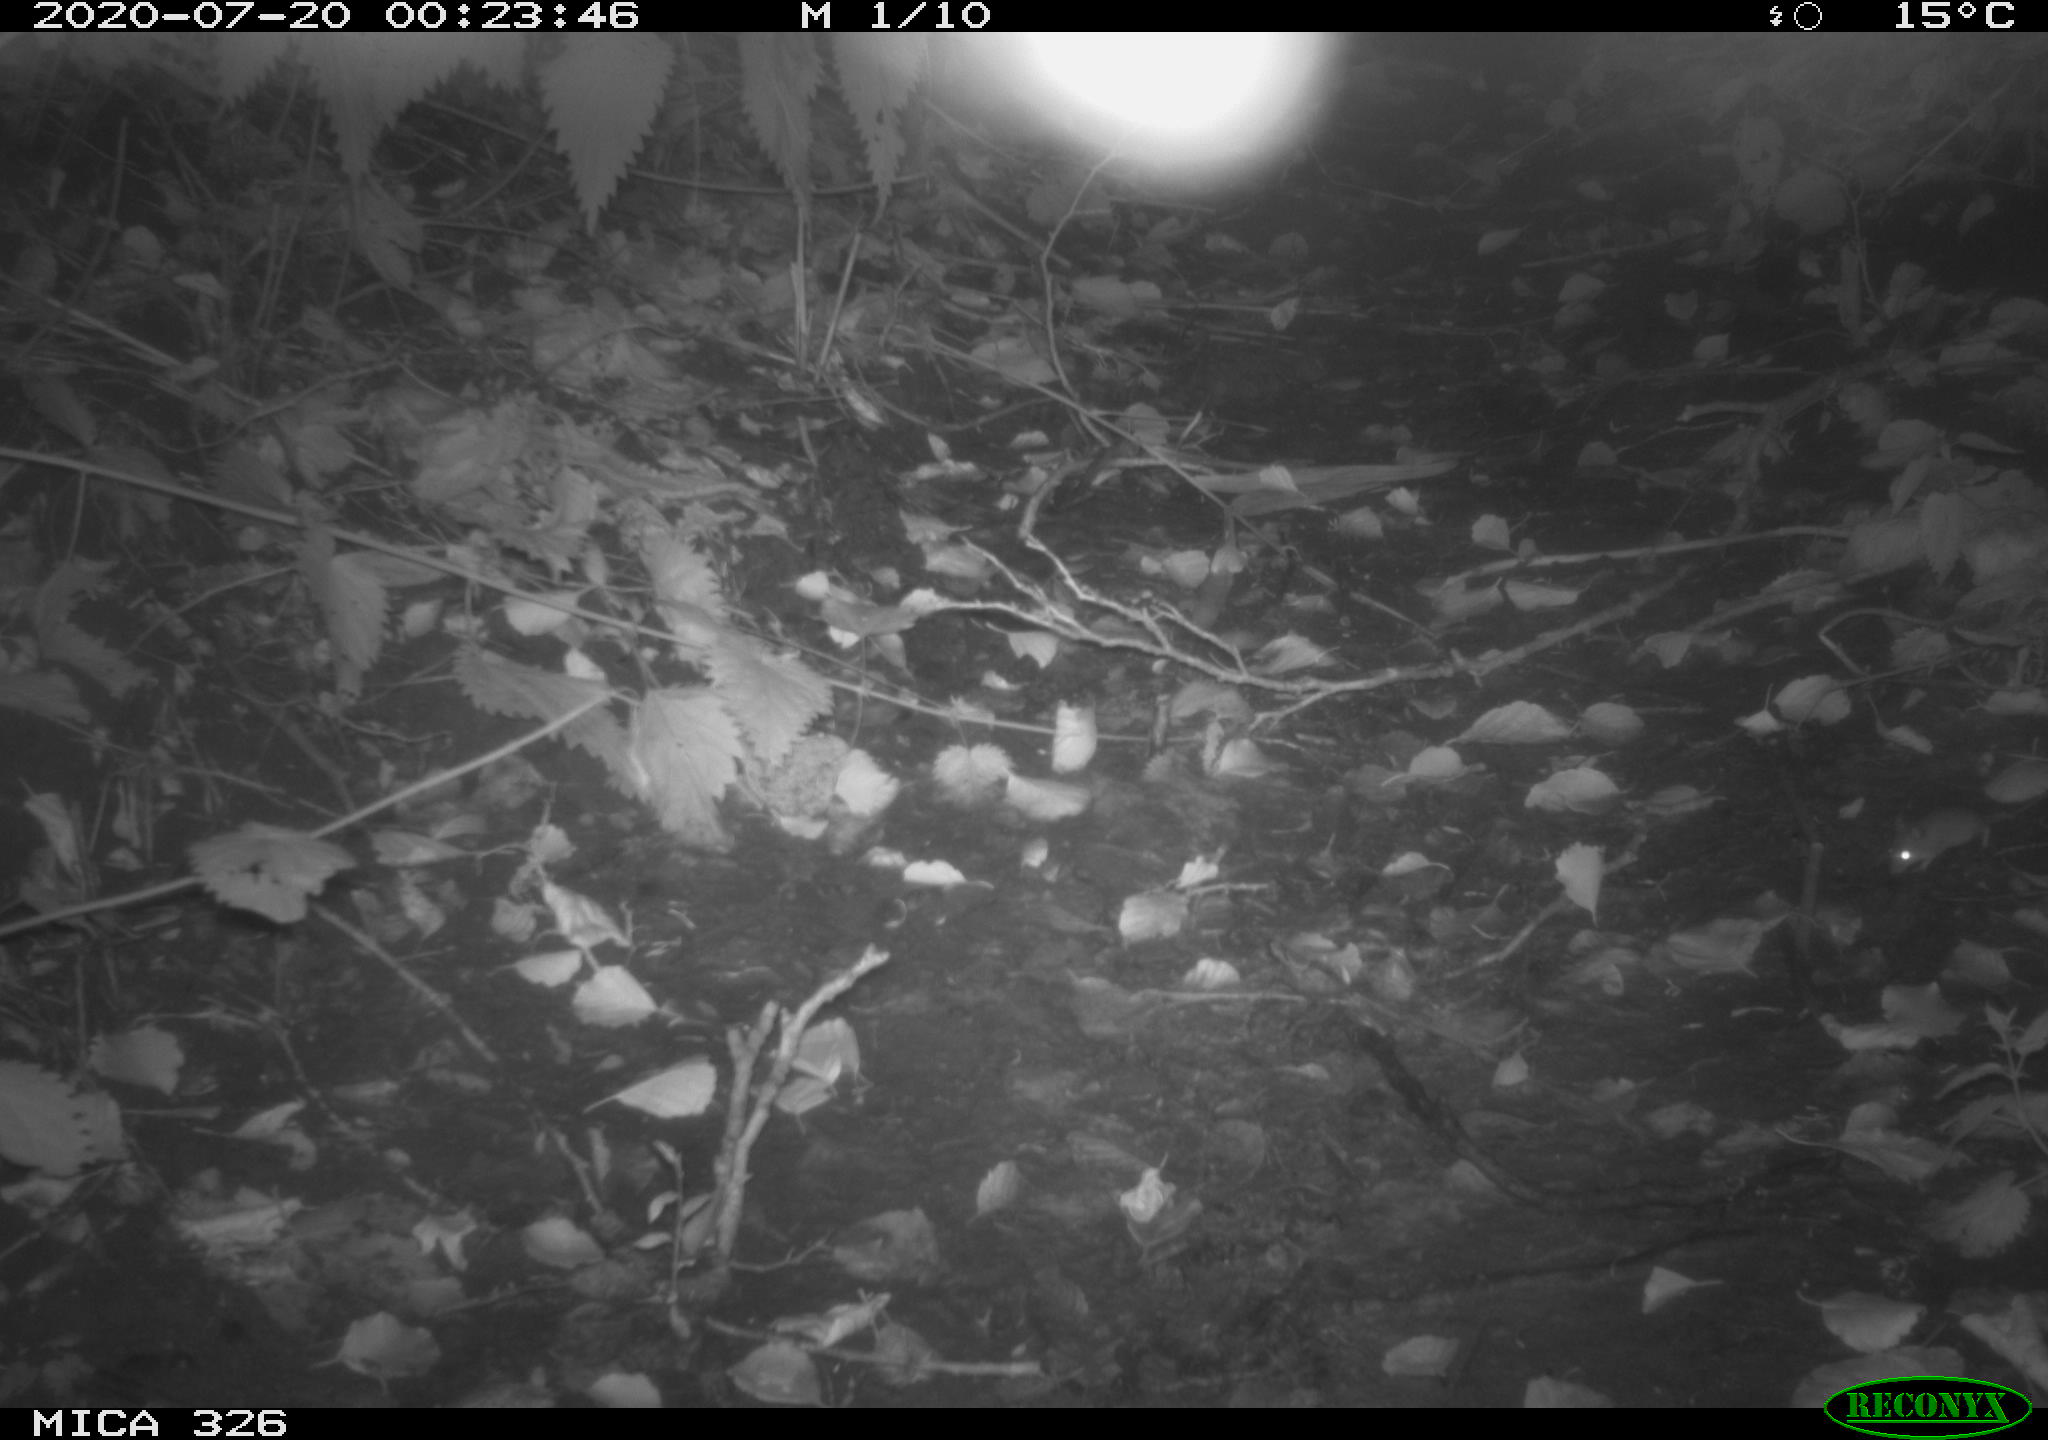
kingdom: Animalia
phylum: Chordata
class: Mammalia
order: Rodentia
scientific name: Rodentia
